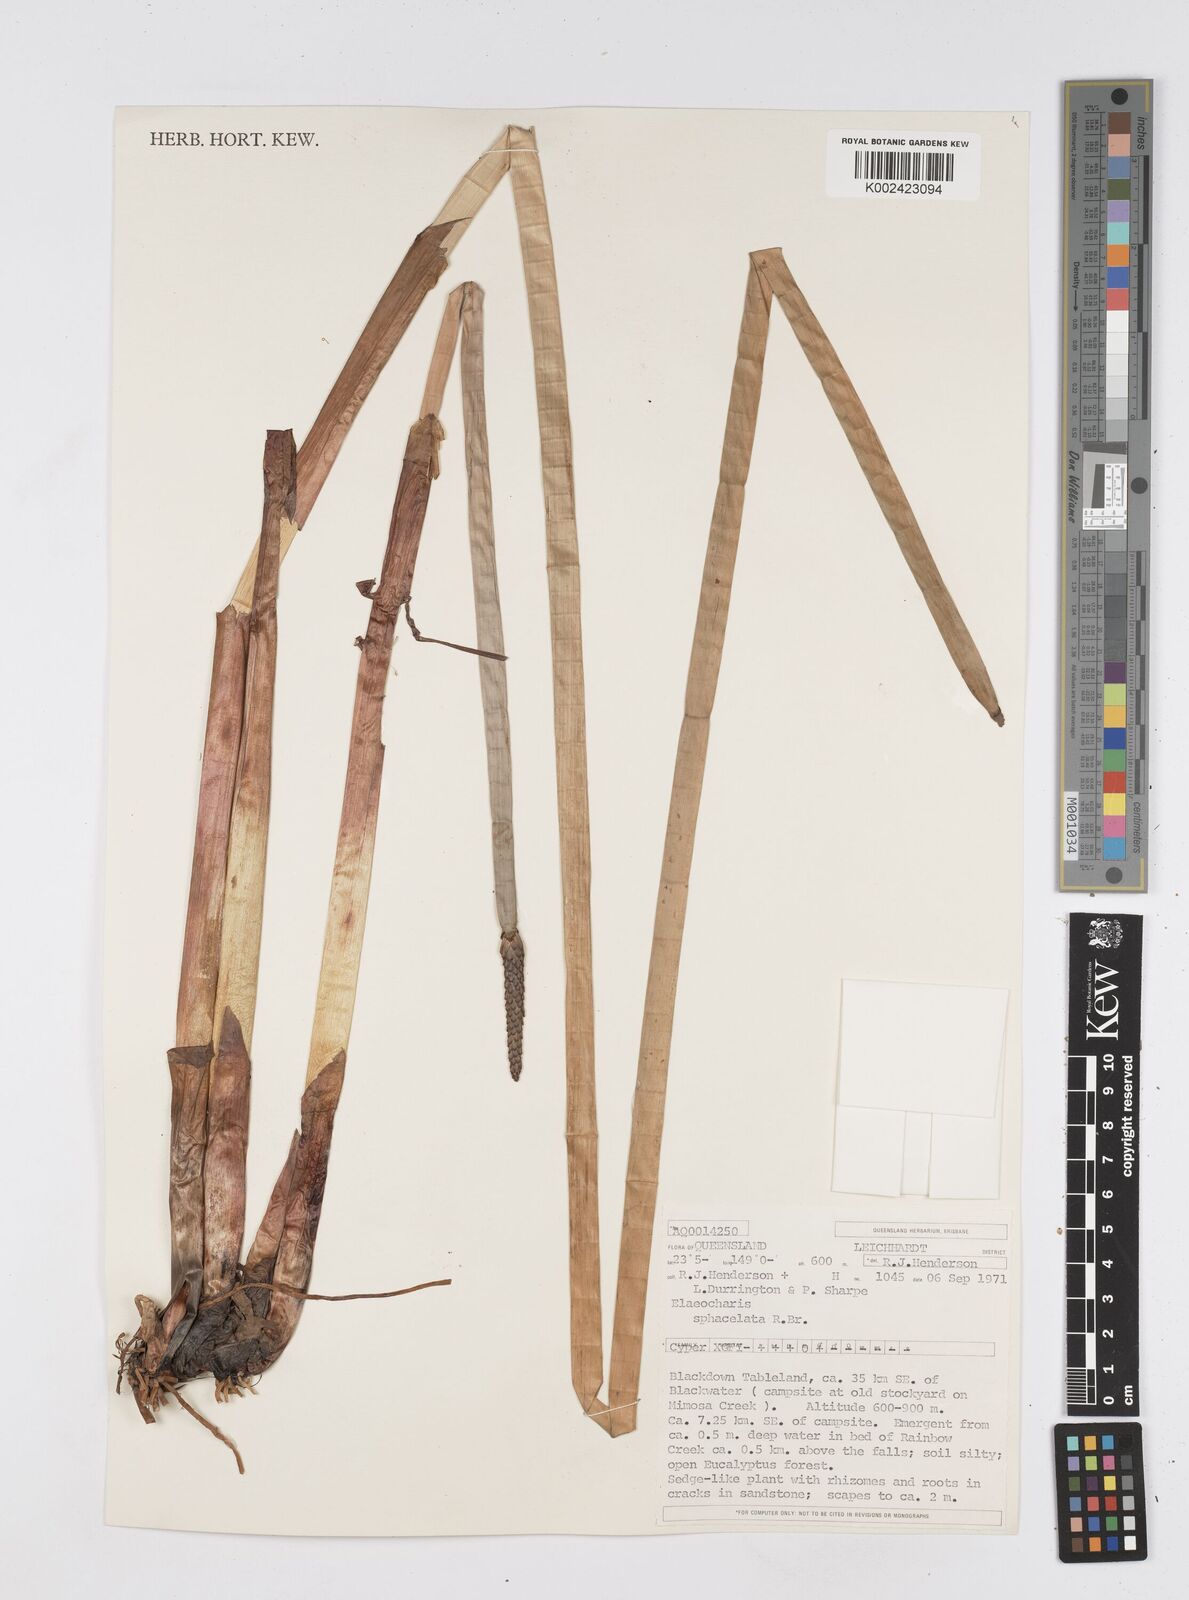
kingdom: Plantae
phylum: Tracheophyta
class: Liliopsida
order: Poales
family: Cyperaceae
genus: Eleocharis
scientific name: Eleocharis sphacelata
